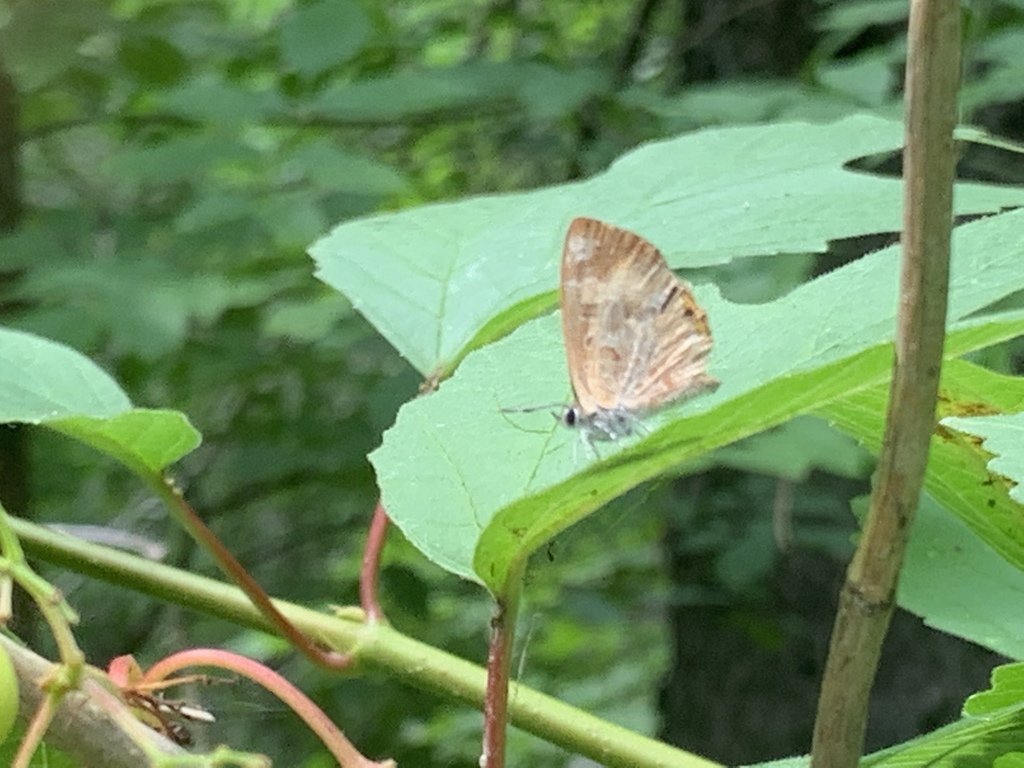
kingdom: Animalia
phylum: Arthropoda
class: Insecta
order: Lepidoptera
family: Lycaenidae
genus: Feniseca
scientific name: Feniseca tarquinius
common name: Harvester
